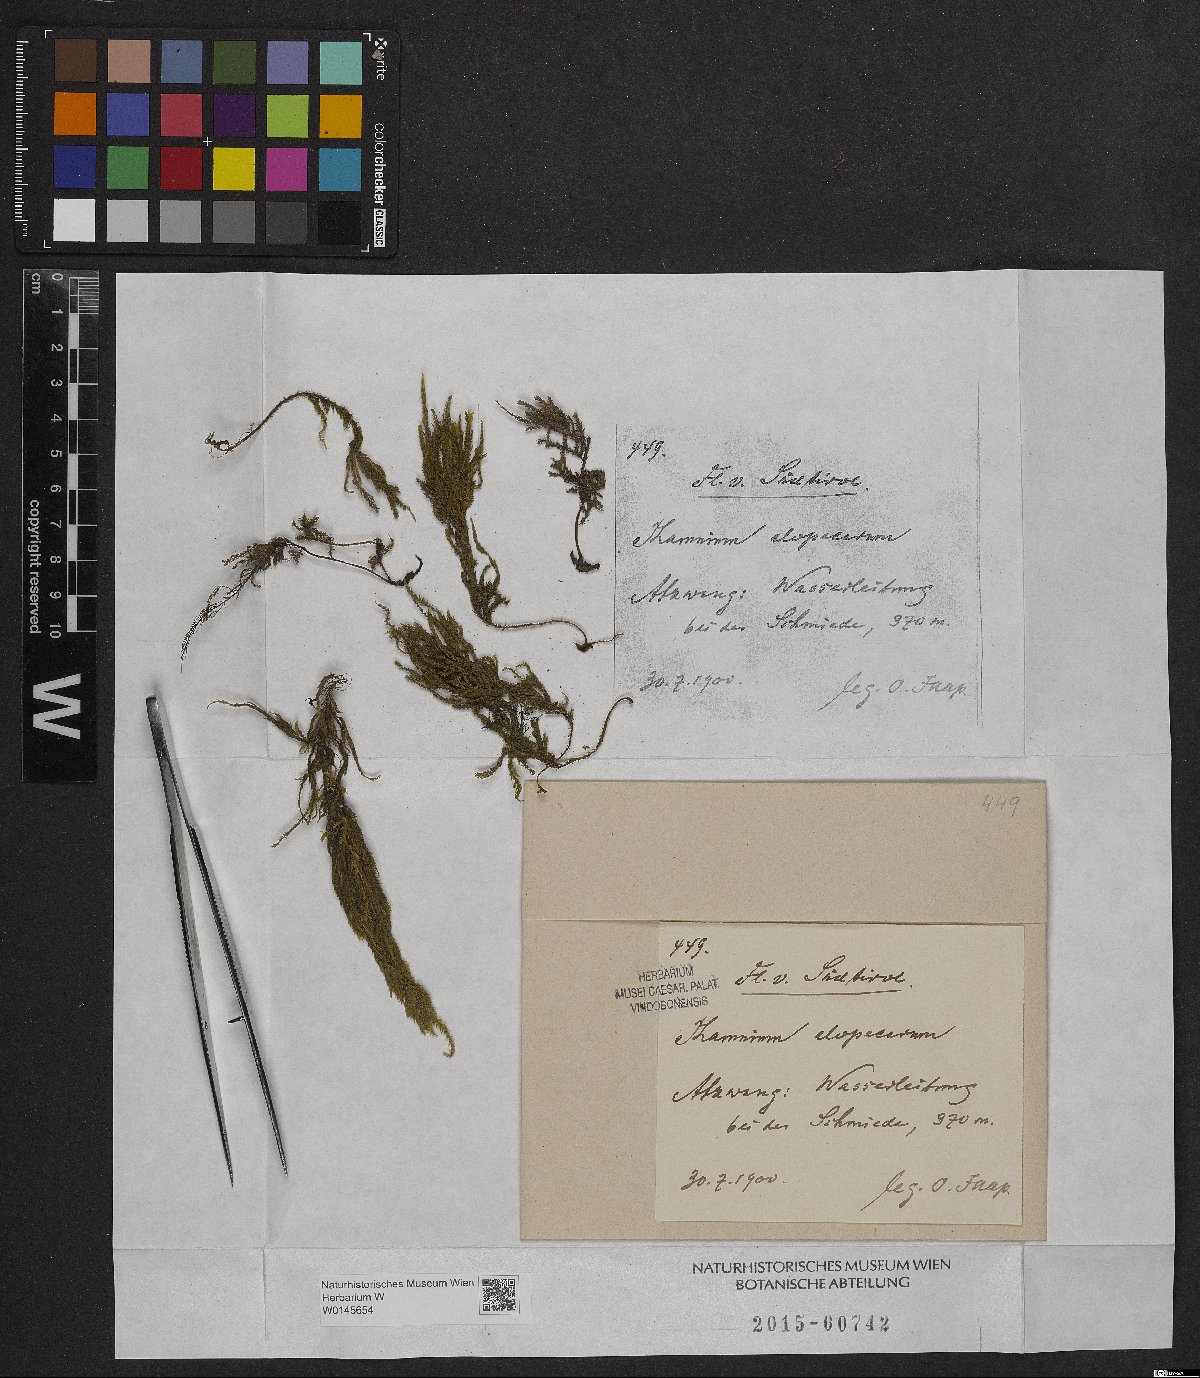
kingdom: Plantae
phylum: Bryophyta
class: Bryopsida
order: Hypnales
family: Neckeraceae
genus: Thamnobryum
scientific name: Thamnobryum alopecurum
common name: Fox-tail feather-moss
